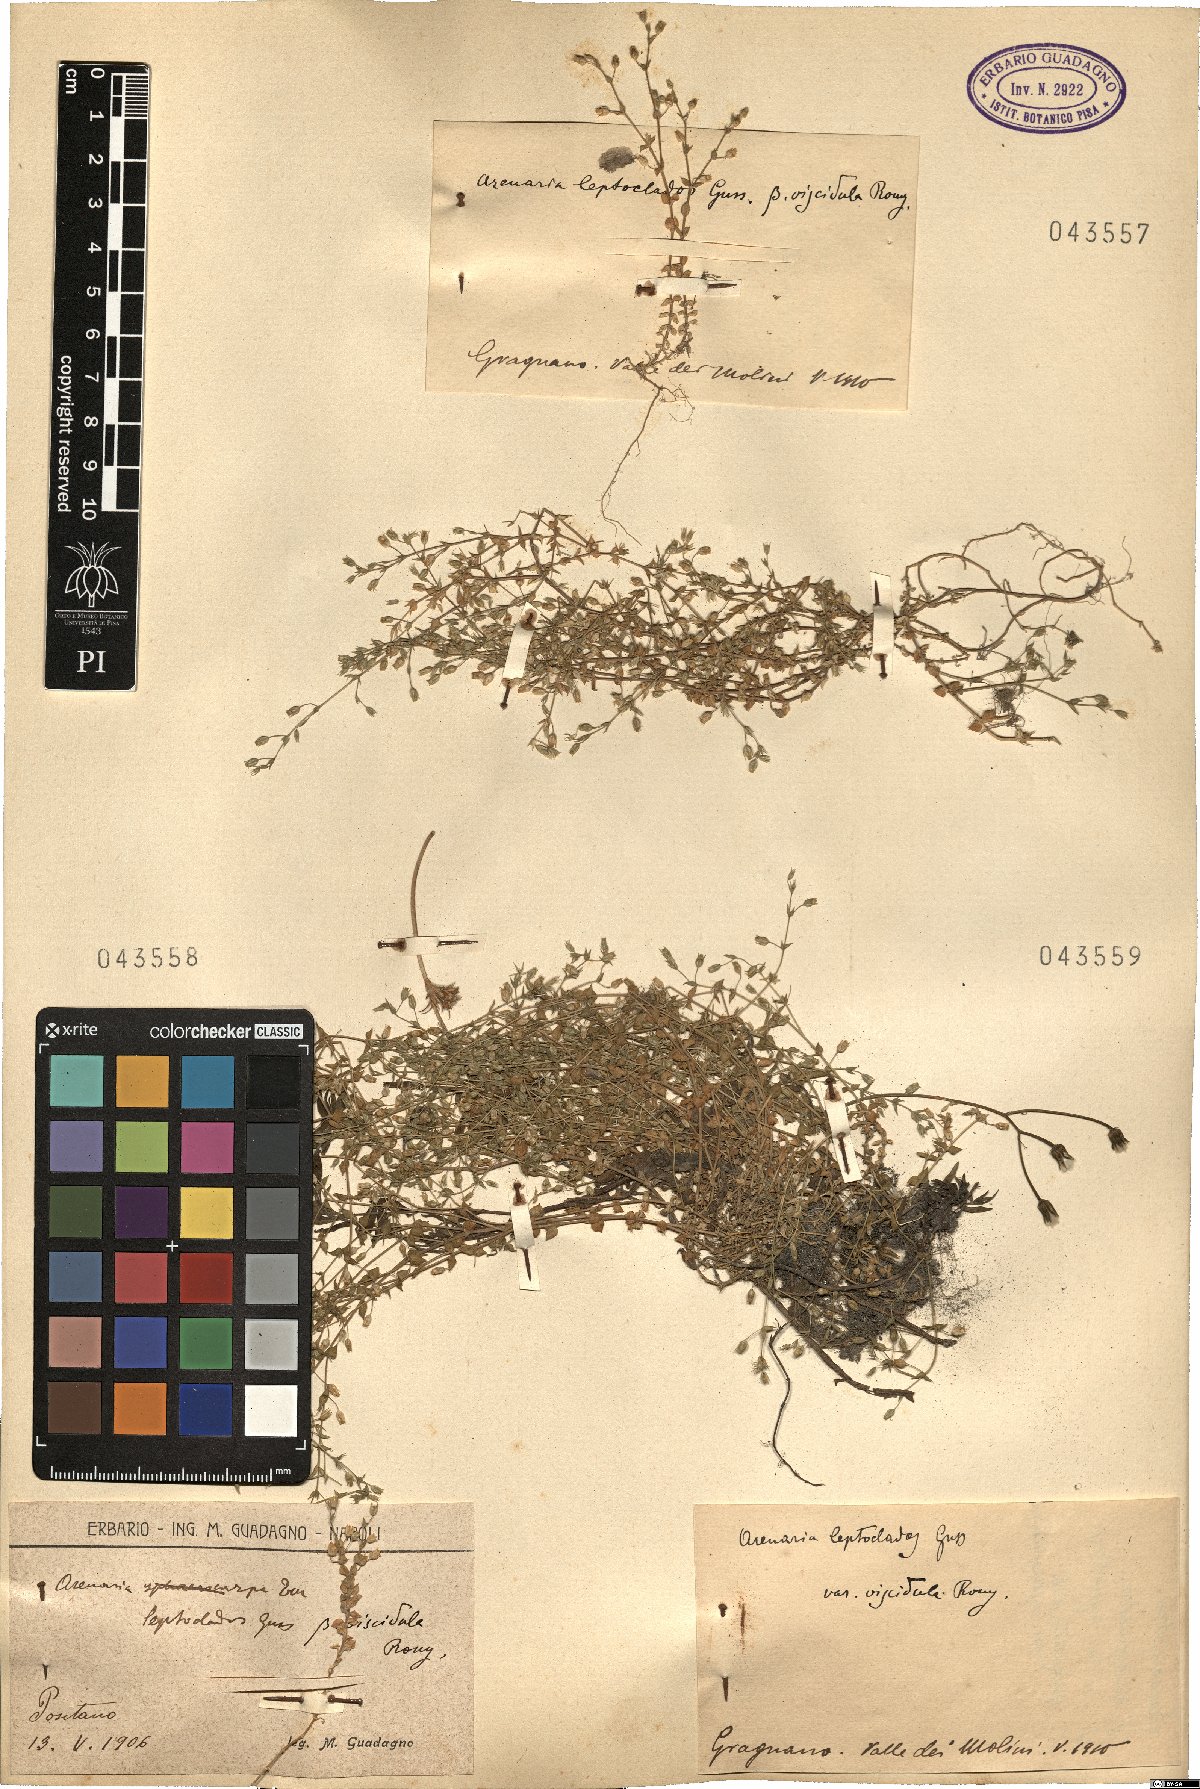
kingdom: Plantae
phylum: Tracheophyta
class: Magnoliopsida
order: Caryophyllales
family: Caryophyllaceae
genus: Arenaria
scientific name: Arenaria leptoclados
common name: Thyme-leaved sandwort
